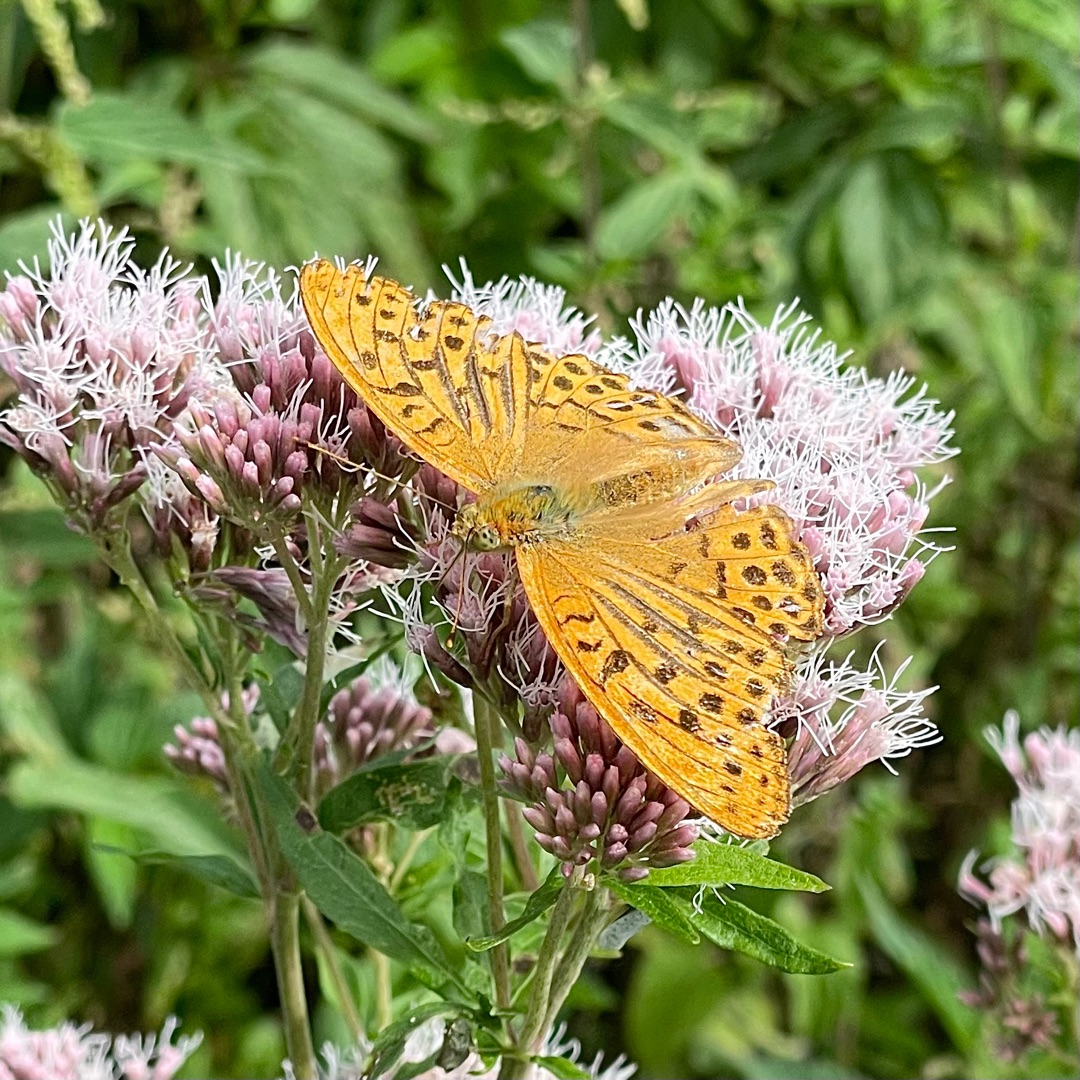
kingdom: Animalia
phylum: Arthropoda
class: Insecta
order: Lepidoptera
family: Nymphalidae
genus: Argynnis
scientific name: Argynnis paphia
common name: Kejserkåbe
